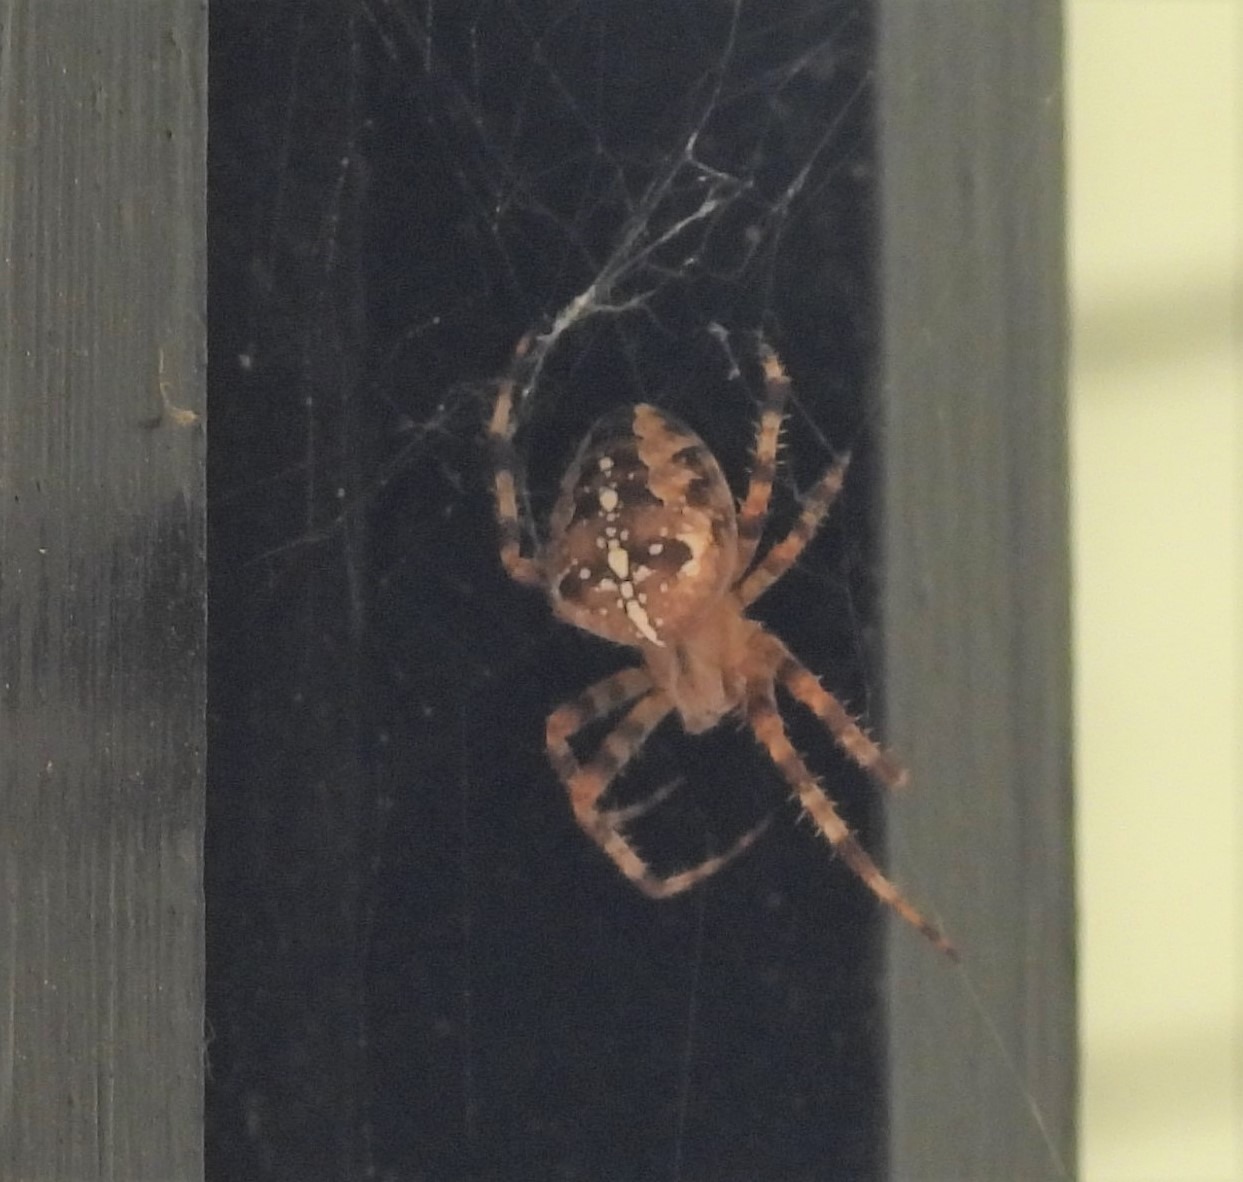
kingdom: Animalia
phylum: Arthropoda
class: Arachnida
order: Araneae
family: Araneidae
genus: Araneus
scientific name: Araneus diadematus
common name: Korsedderkop
